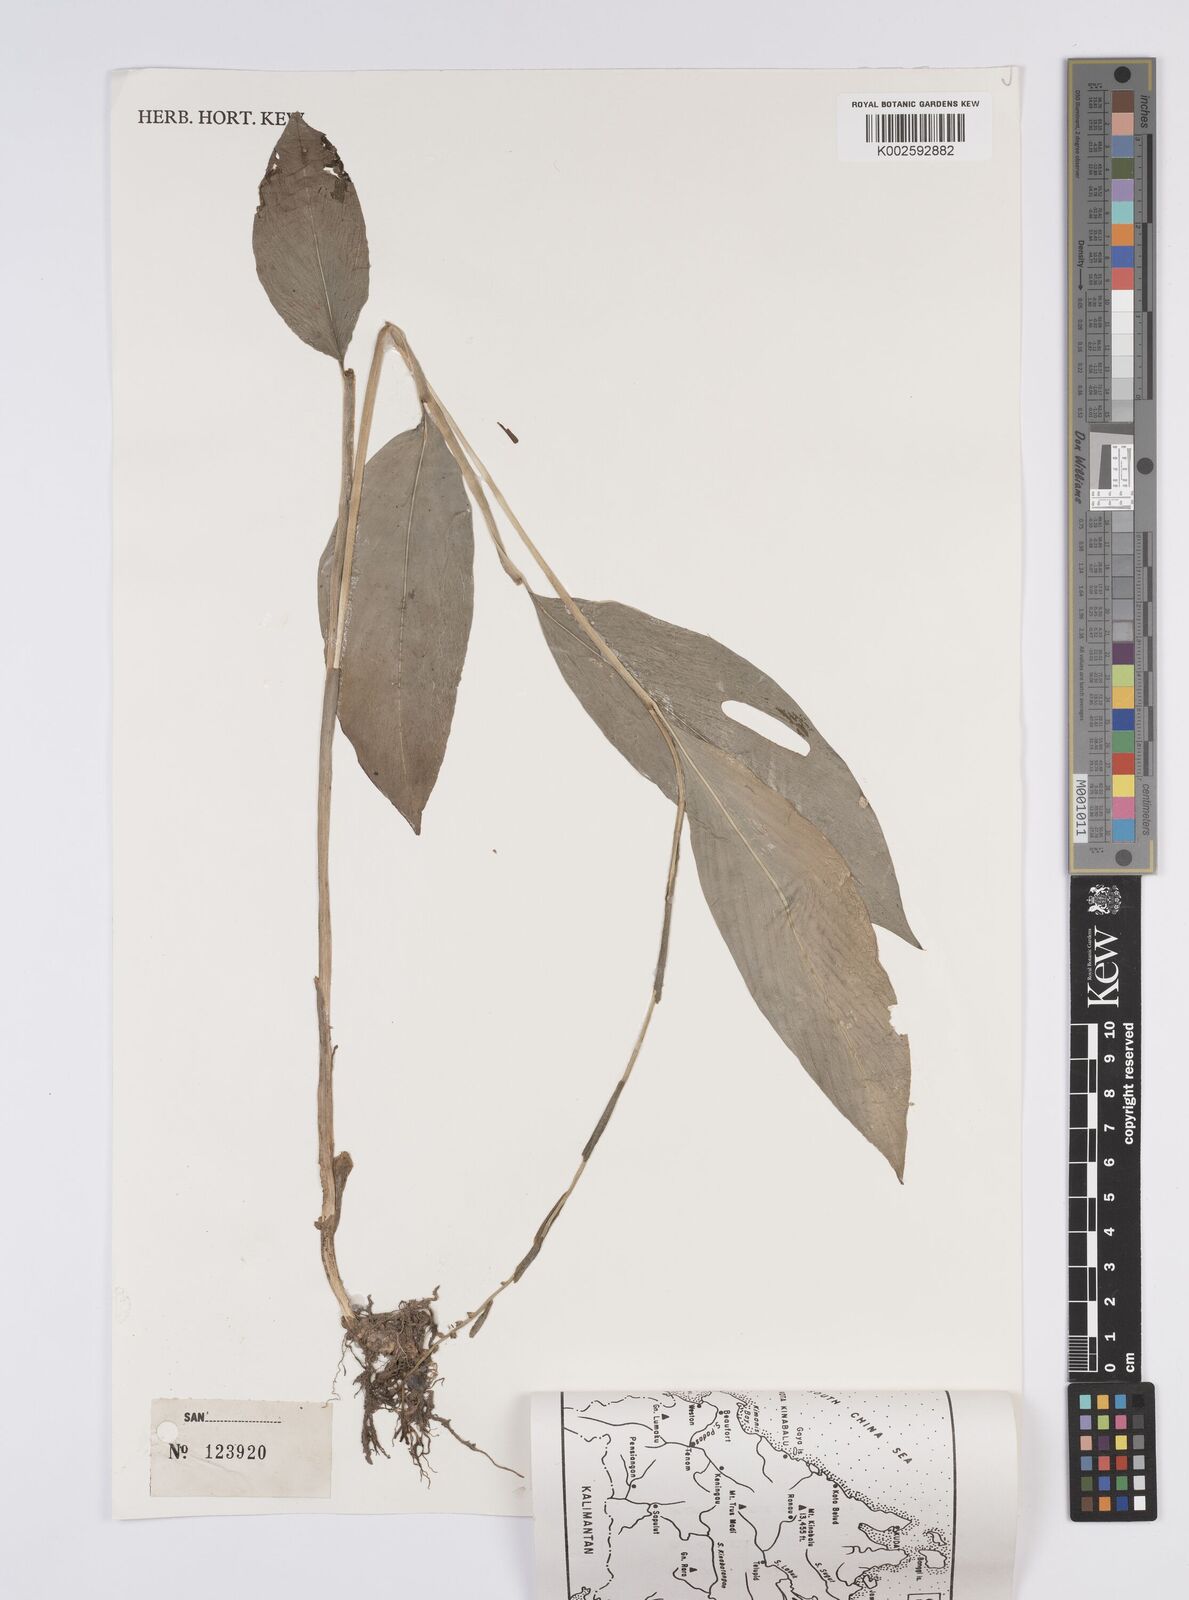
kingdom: Plantae
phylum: Tracheophyta
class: Liliopsida
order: Zingiberales
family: Zingiberaceae
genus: Globba
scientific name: Globba propinqua
